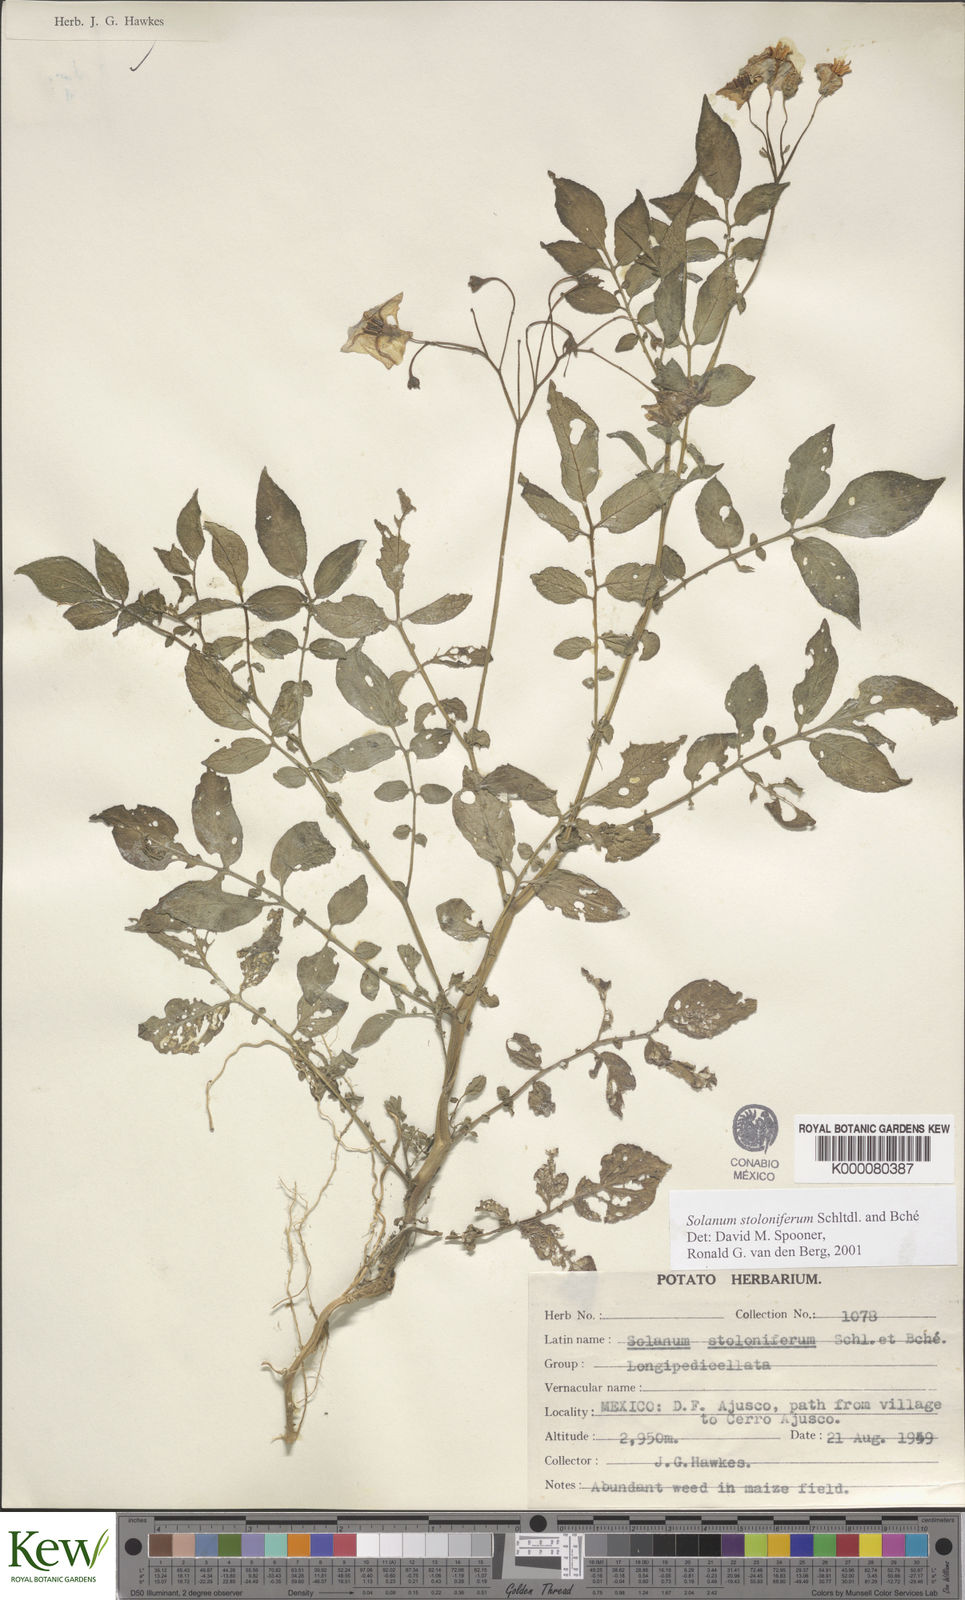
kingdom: Plantae
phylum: Tracheophyta
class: Magnoliopsida
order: Solanales
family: Solanaceae
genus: Solanum
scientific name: Solanum stoloniferum
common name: Fendler's nighshade
